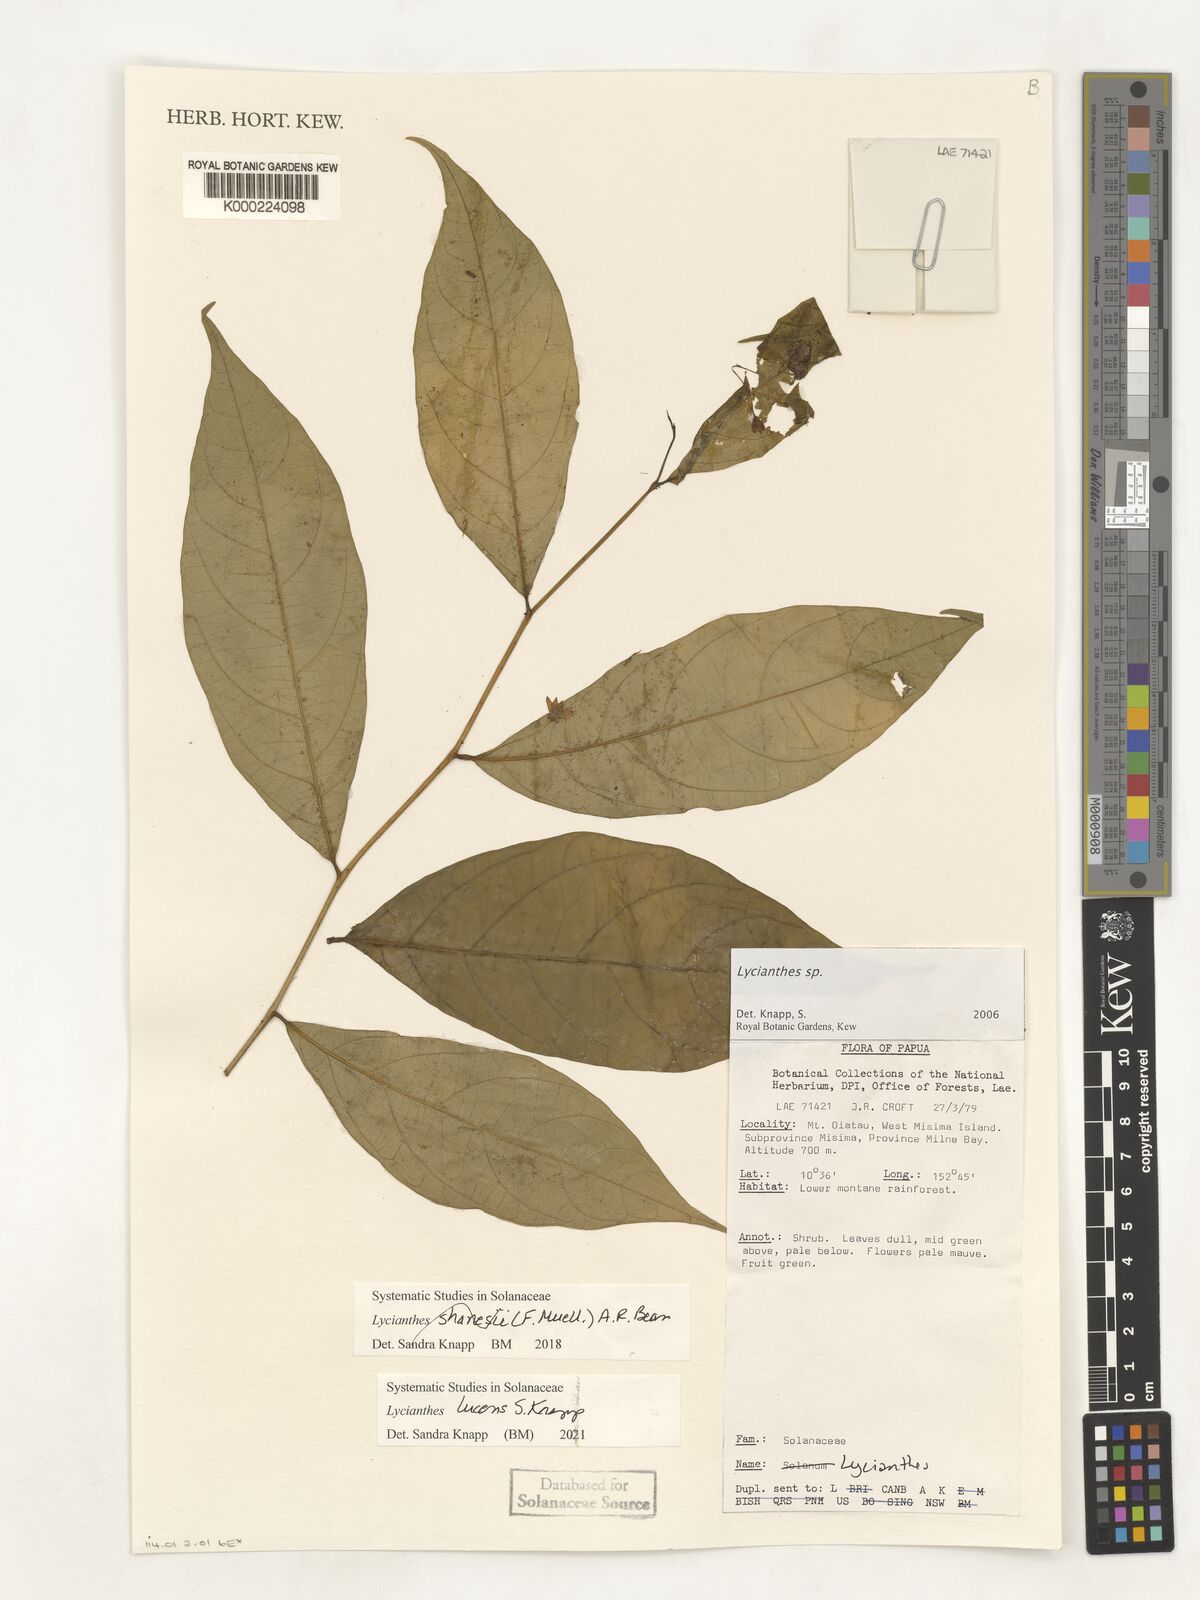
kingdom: Plantae
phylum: Tracheophyta
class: Magnoliopsida
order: Solanales
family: Solanaceae
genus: Lycianthes
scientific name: Lycianthes
